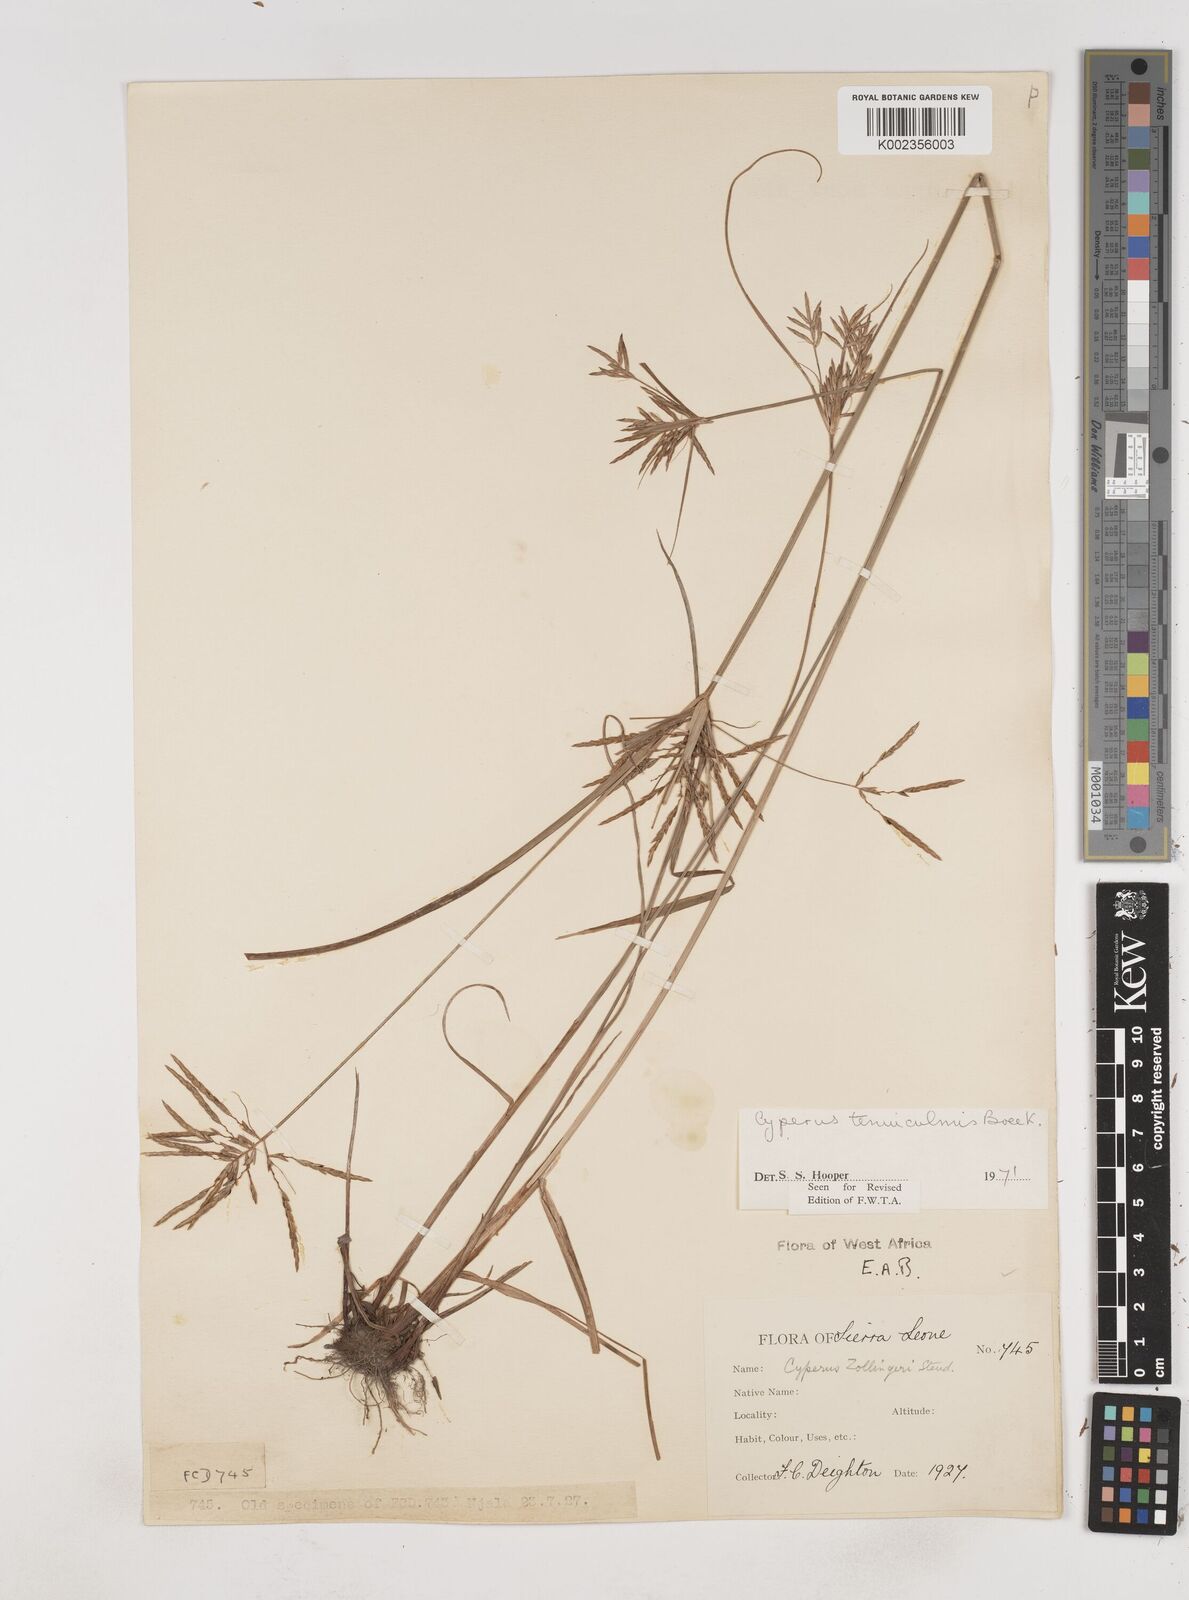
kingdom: Plantae
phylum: Tracheophyta
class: Liliopsida
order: Poales
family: Cyperaceae
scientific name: Cyperaceae
